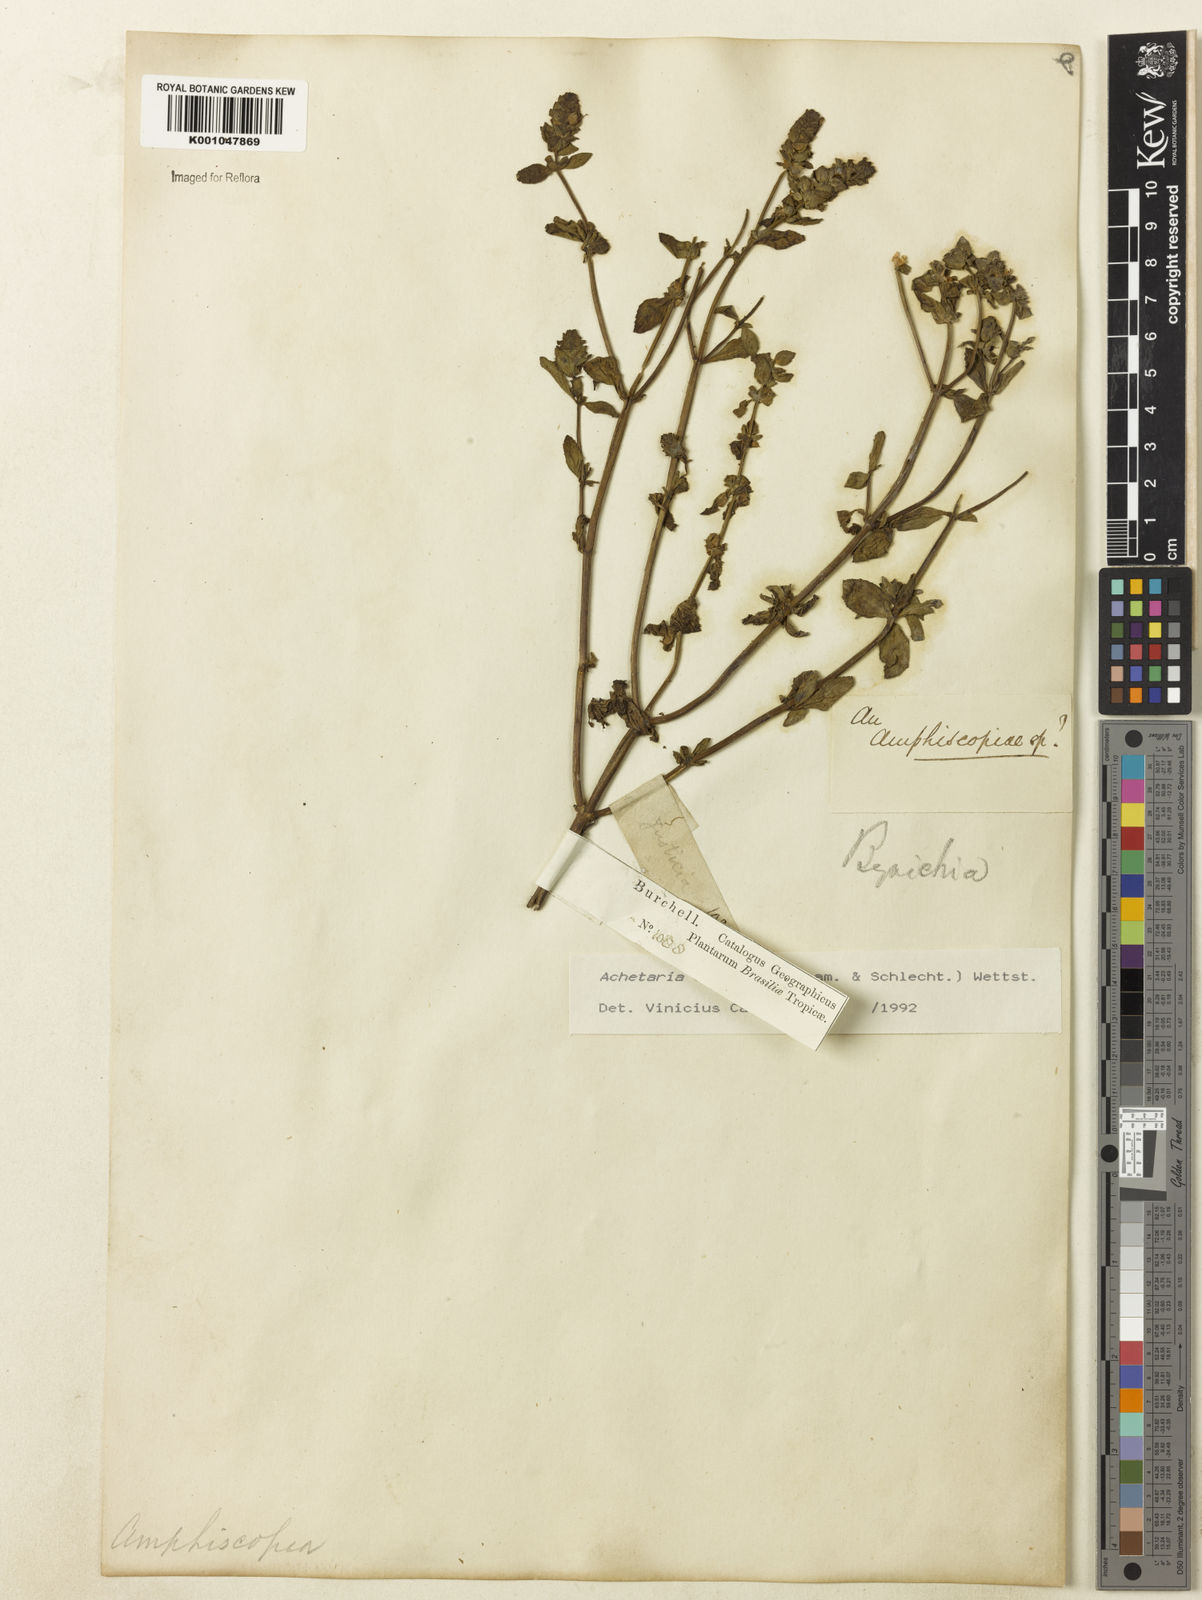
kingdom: Plantae
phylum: Tracheophyta
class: Magnoliopsida
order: Lamiales
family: Plantaginaceae
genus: Matourea
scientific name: Matourea ocymoides
